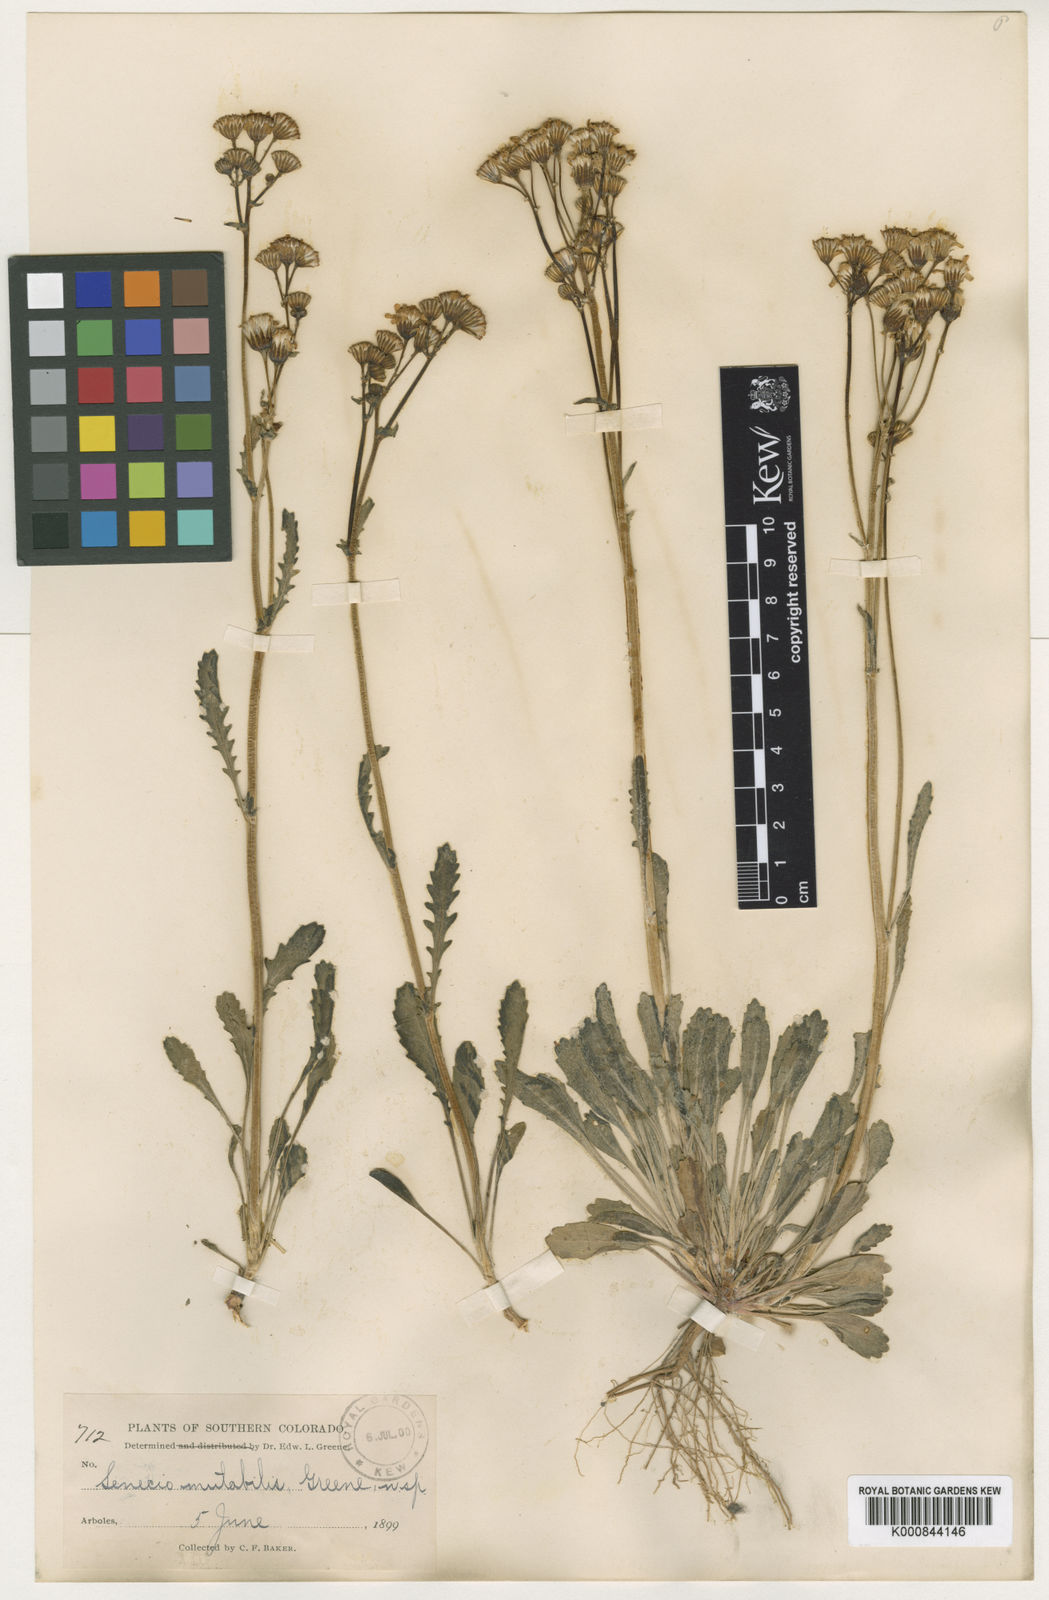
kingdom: Plantae
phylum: Tracheophyta
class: Magnoliopsida
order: Asterales
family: Asteraceae
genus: Packera
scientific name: Packera
